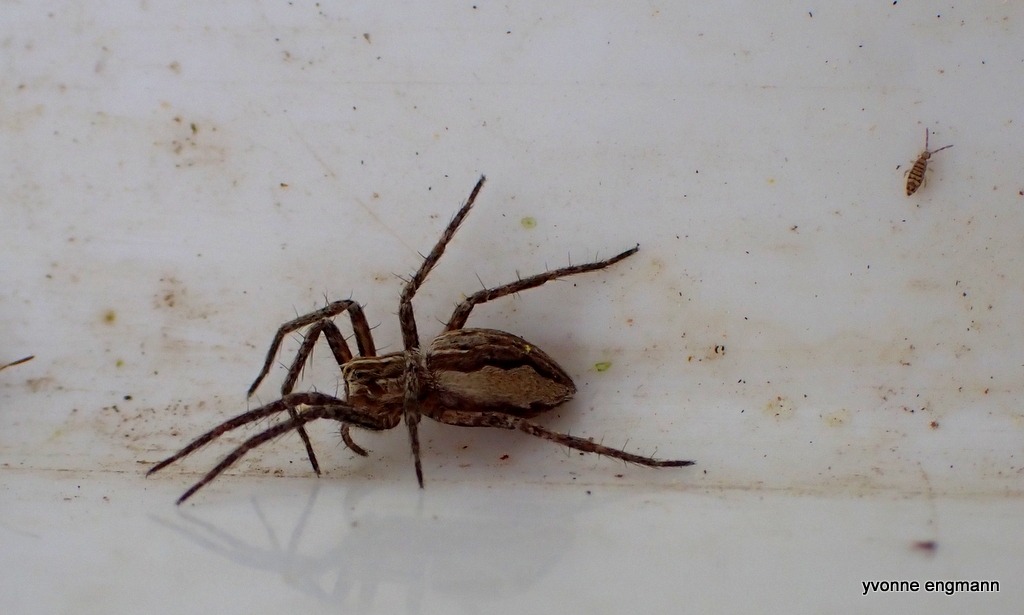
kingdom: Animalia
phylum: Arthropoda
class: Arachnida
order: Araneae
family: Pisauridae
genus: Pisaura
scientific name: Pisaura mirabilis
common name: Almindelig rovedderkop
